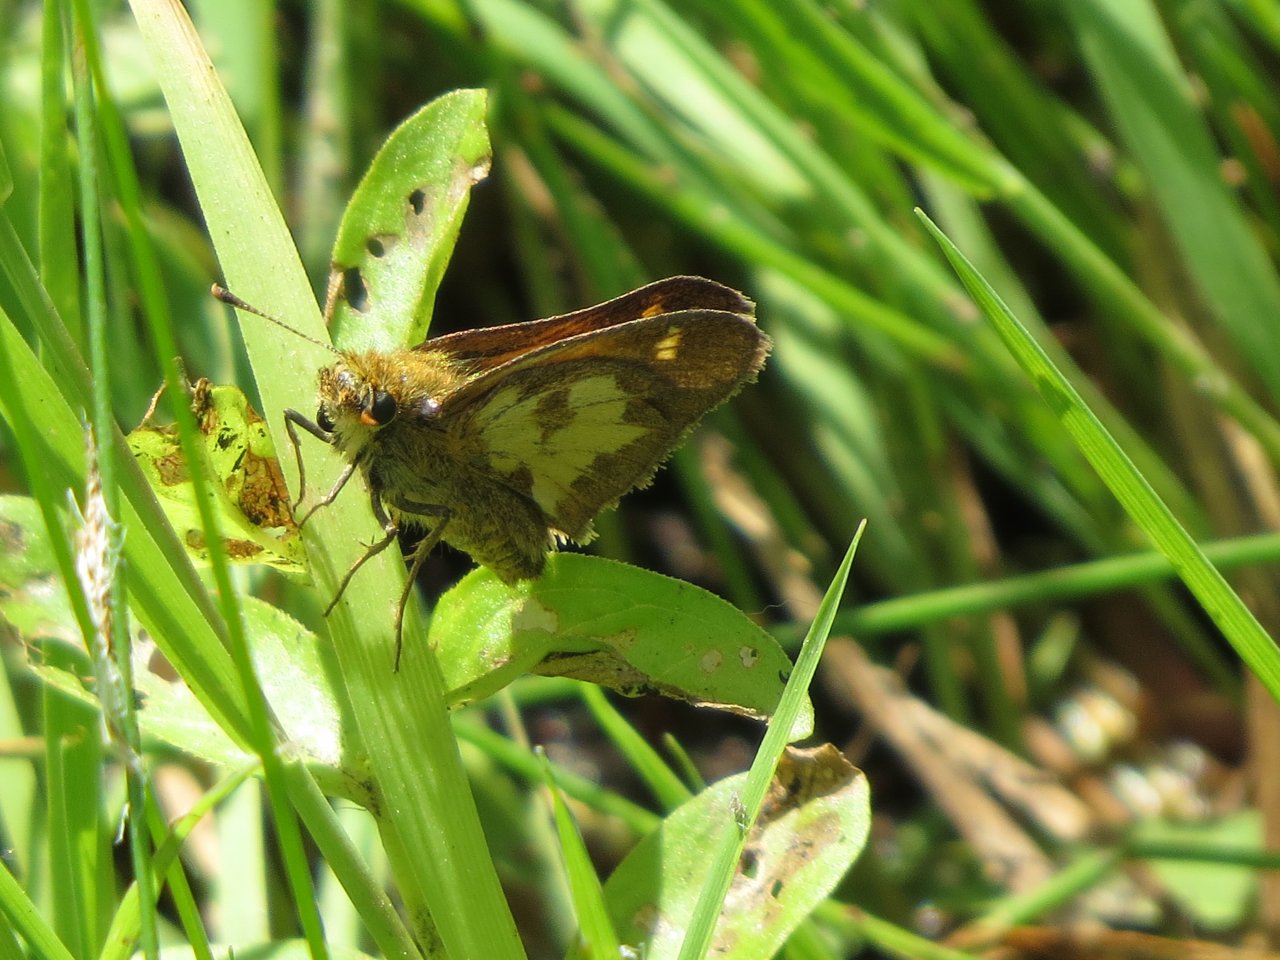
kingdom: Animalia
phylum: Arthropoda
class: Insecta
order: Lepidoptera
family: Hesperiidae
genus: Polites
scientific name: Polites coras
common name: Peck's Skipper
